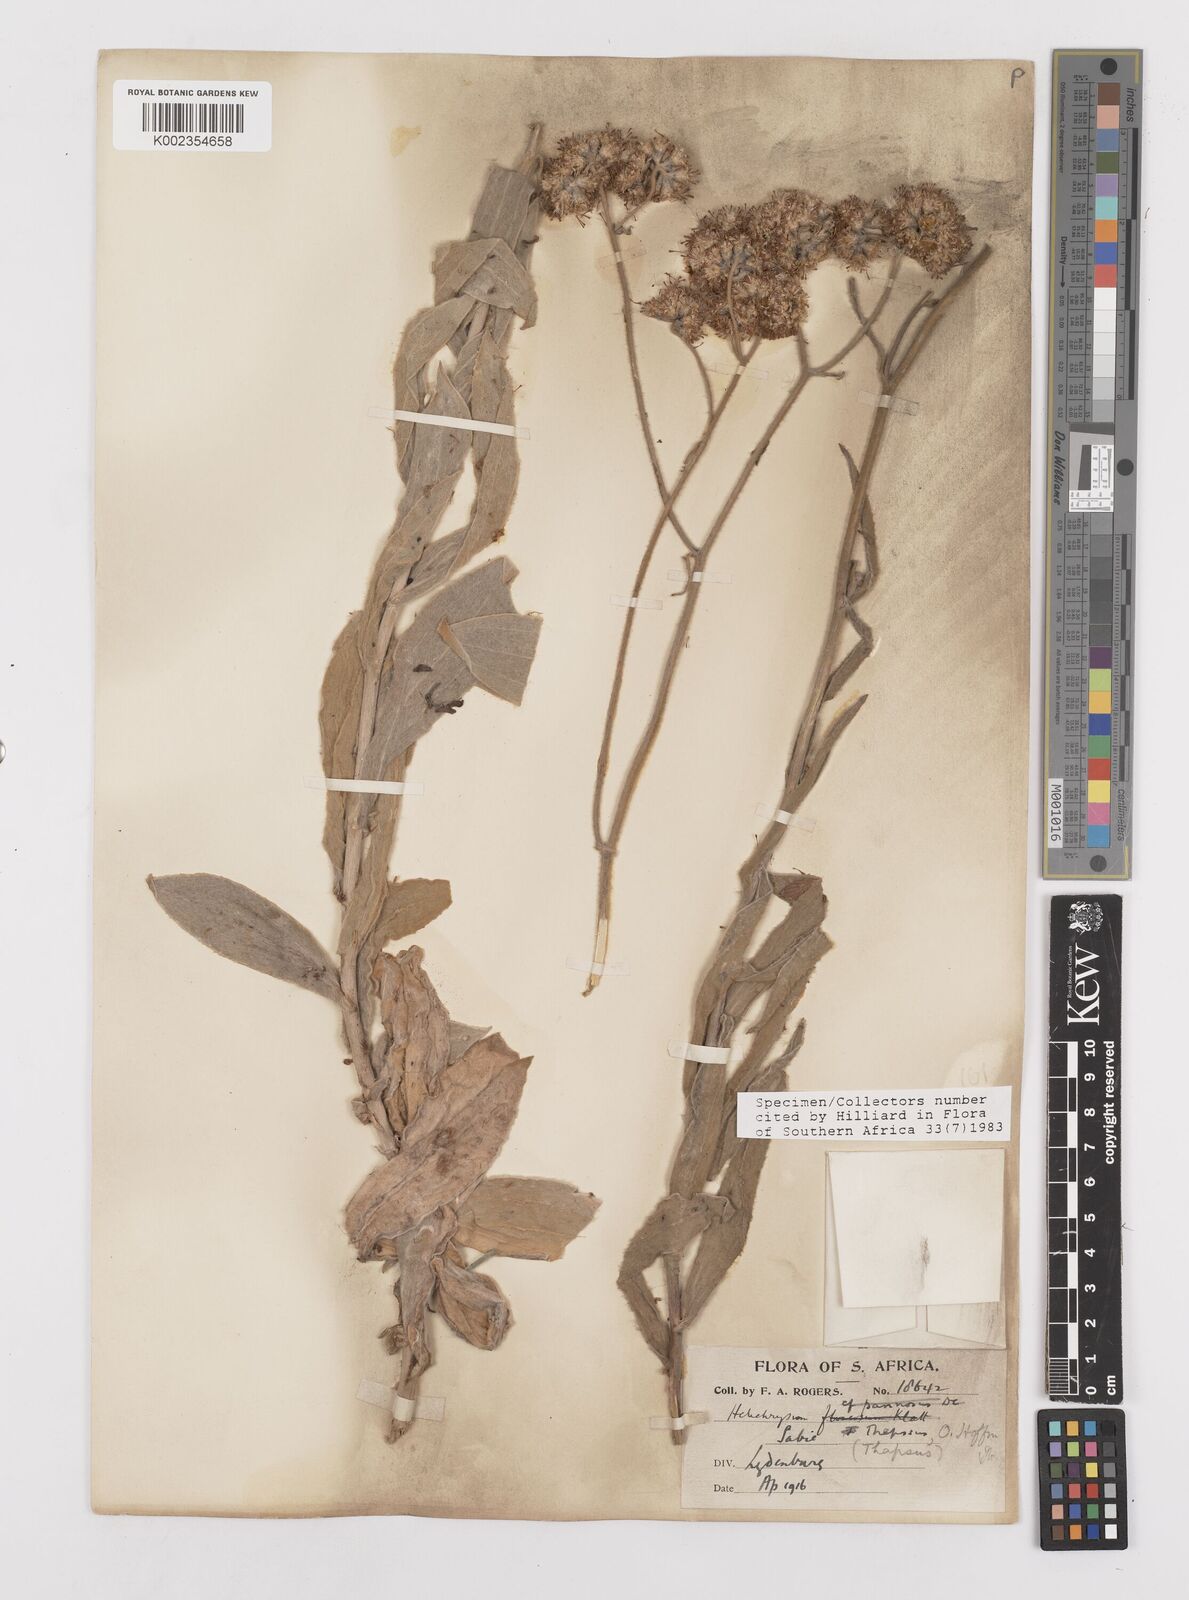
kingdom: Plantae
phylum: Tracheophyta
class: Magnoliopsida
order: Asterales
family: Asteraceae
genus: Helichrysum
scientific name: Helichrysum thapsus
